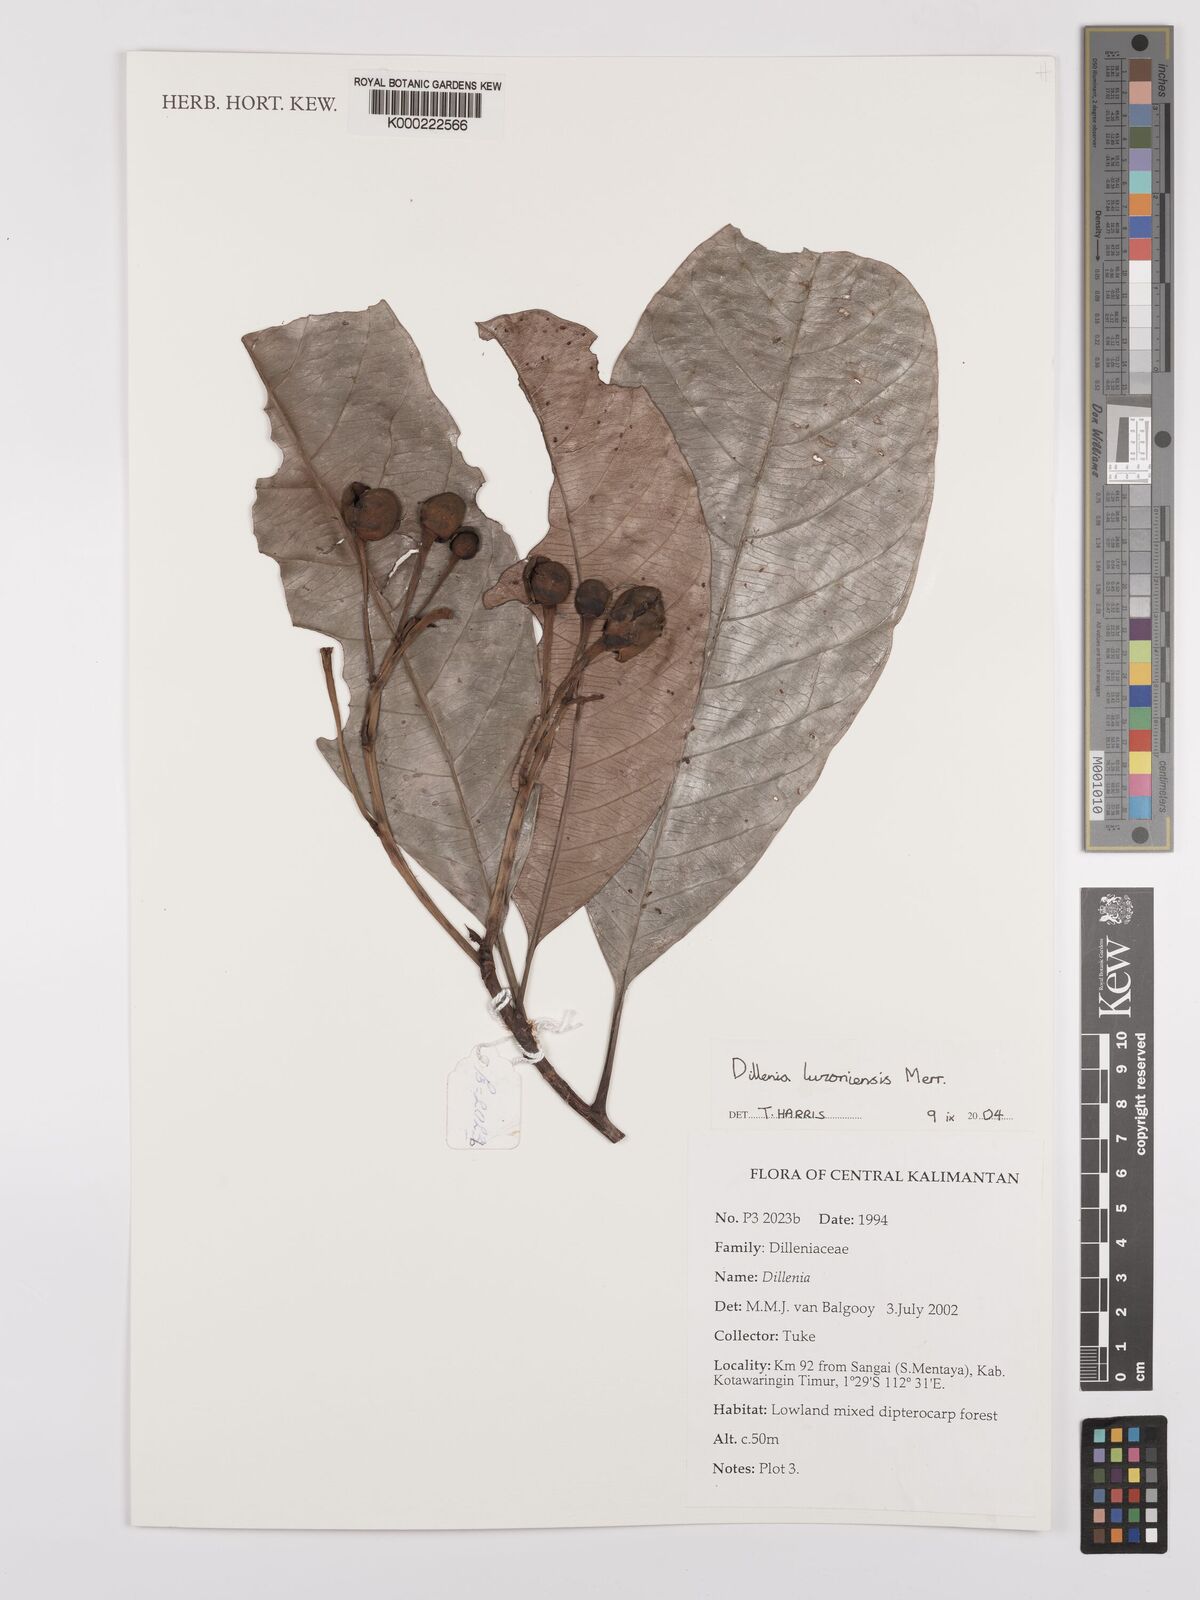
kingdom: Plantae
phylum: Tracheophyta
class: Magnoliopsida
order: Dilleniales
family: Dilleniaceae
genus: Dillenia
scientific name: Dillenia luzoniensis
